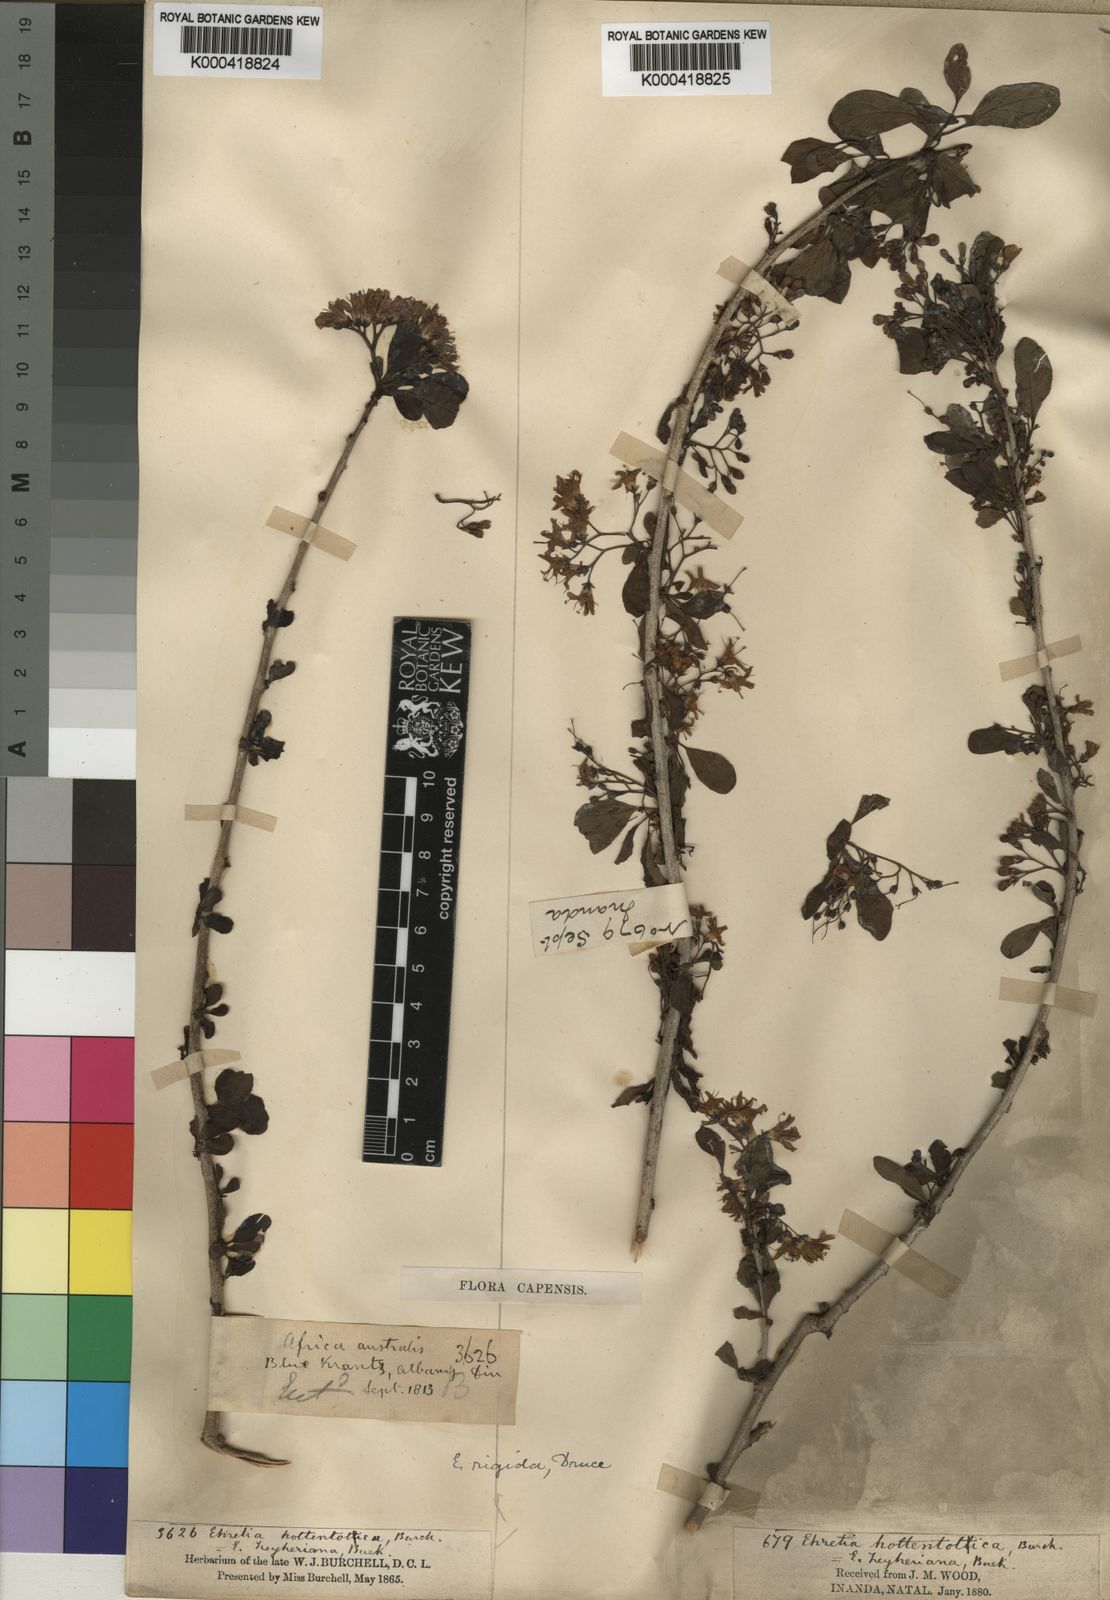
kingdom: Plantae
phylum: Tracheophyta
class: Magnoliopsida
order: Boraginales
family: Ehretiaceae
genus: Ehretia
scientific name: Ehretia rigida
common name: Cape lilac
